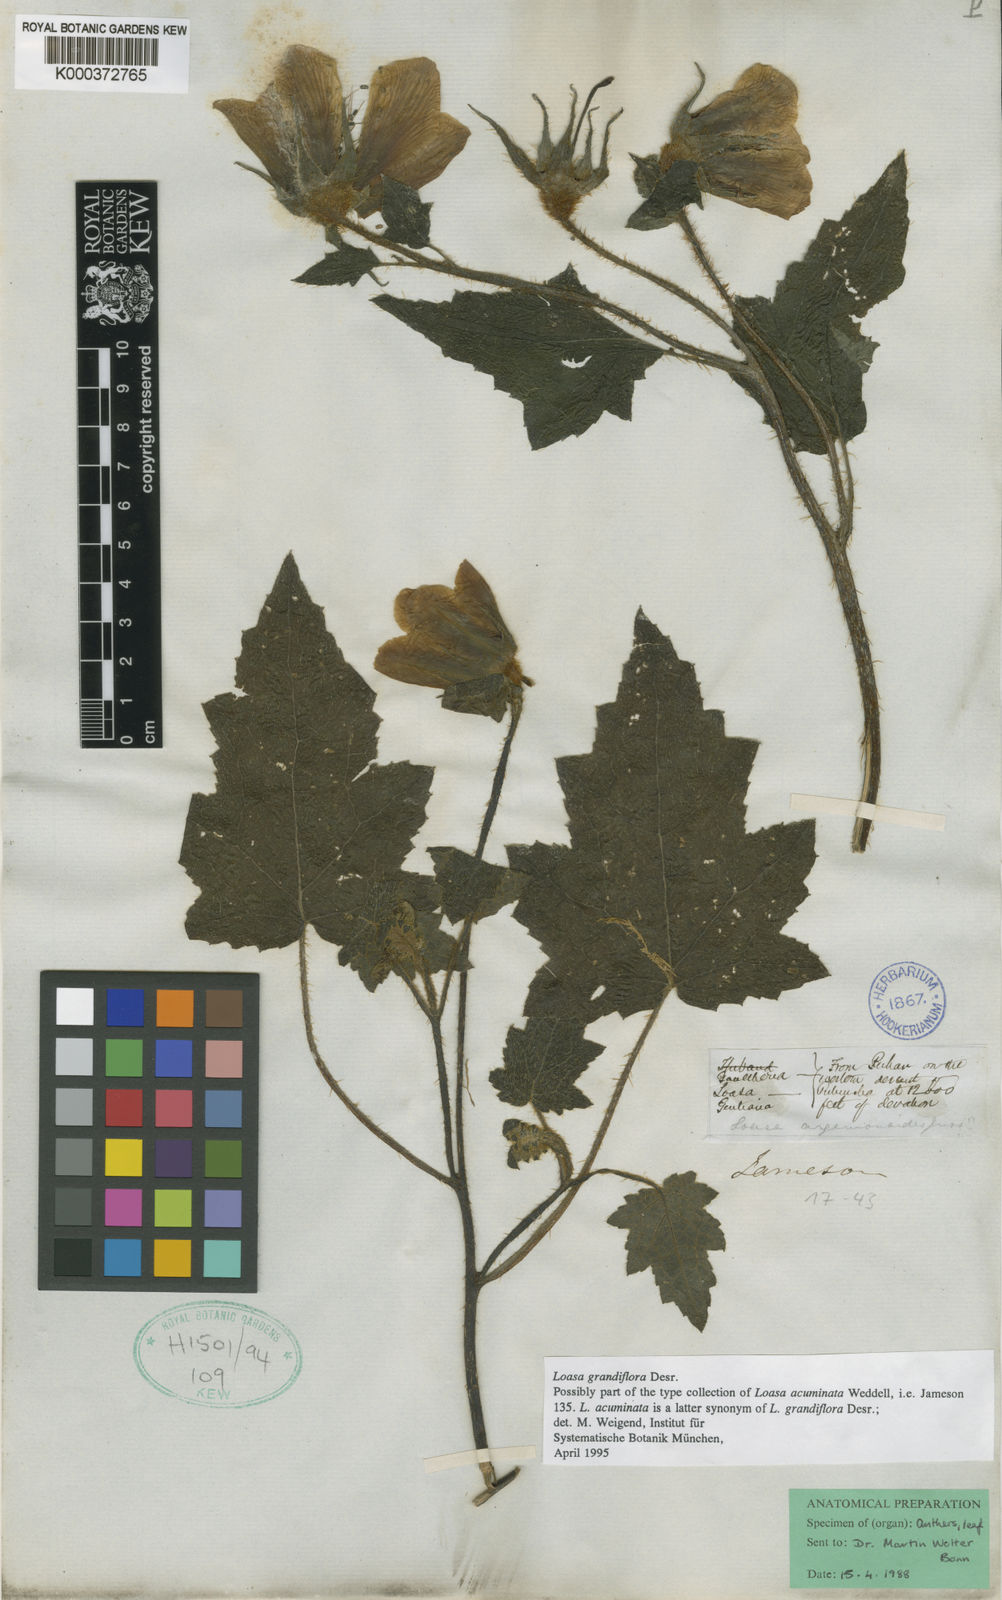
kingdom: Plantae
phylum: Tracheophyta
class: Magnoliopsida
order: Cornales
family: Loasaceae
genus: Nasa
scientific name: Nasa grandiflora
